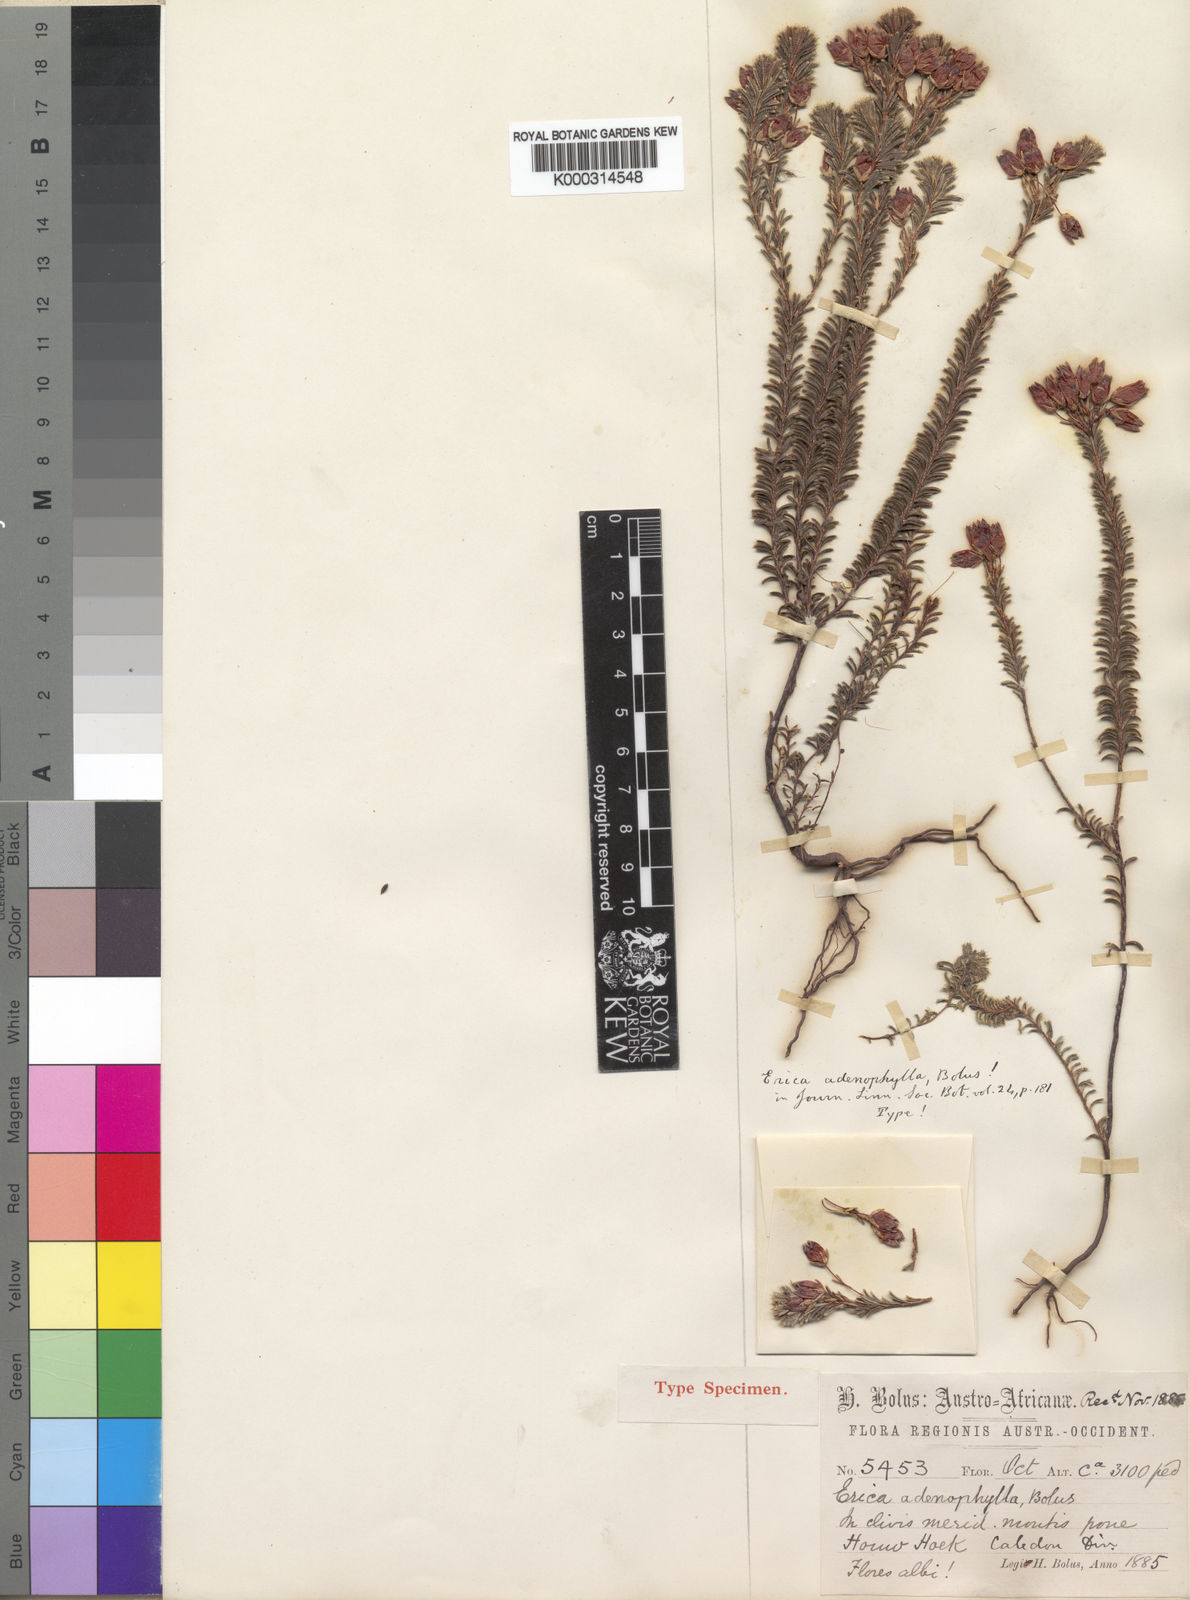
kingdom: Plantae
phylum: Tracheophyta
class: Magnoliopsida
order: Ericales
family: Ericaceae
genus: Erica
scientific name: Erica
